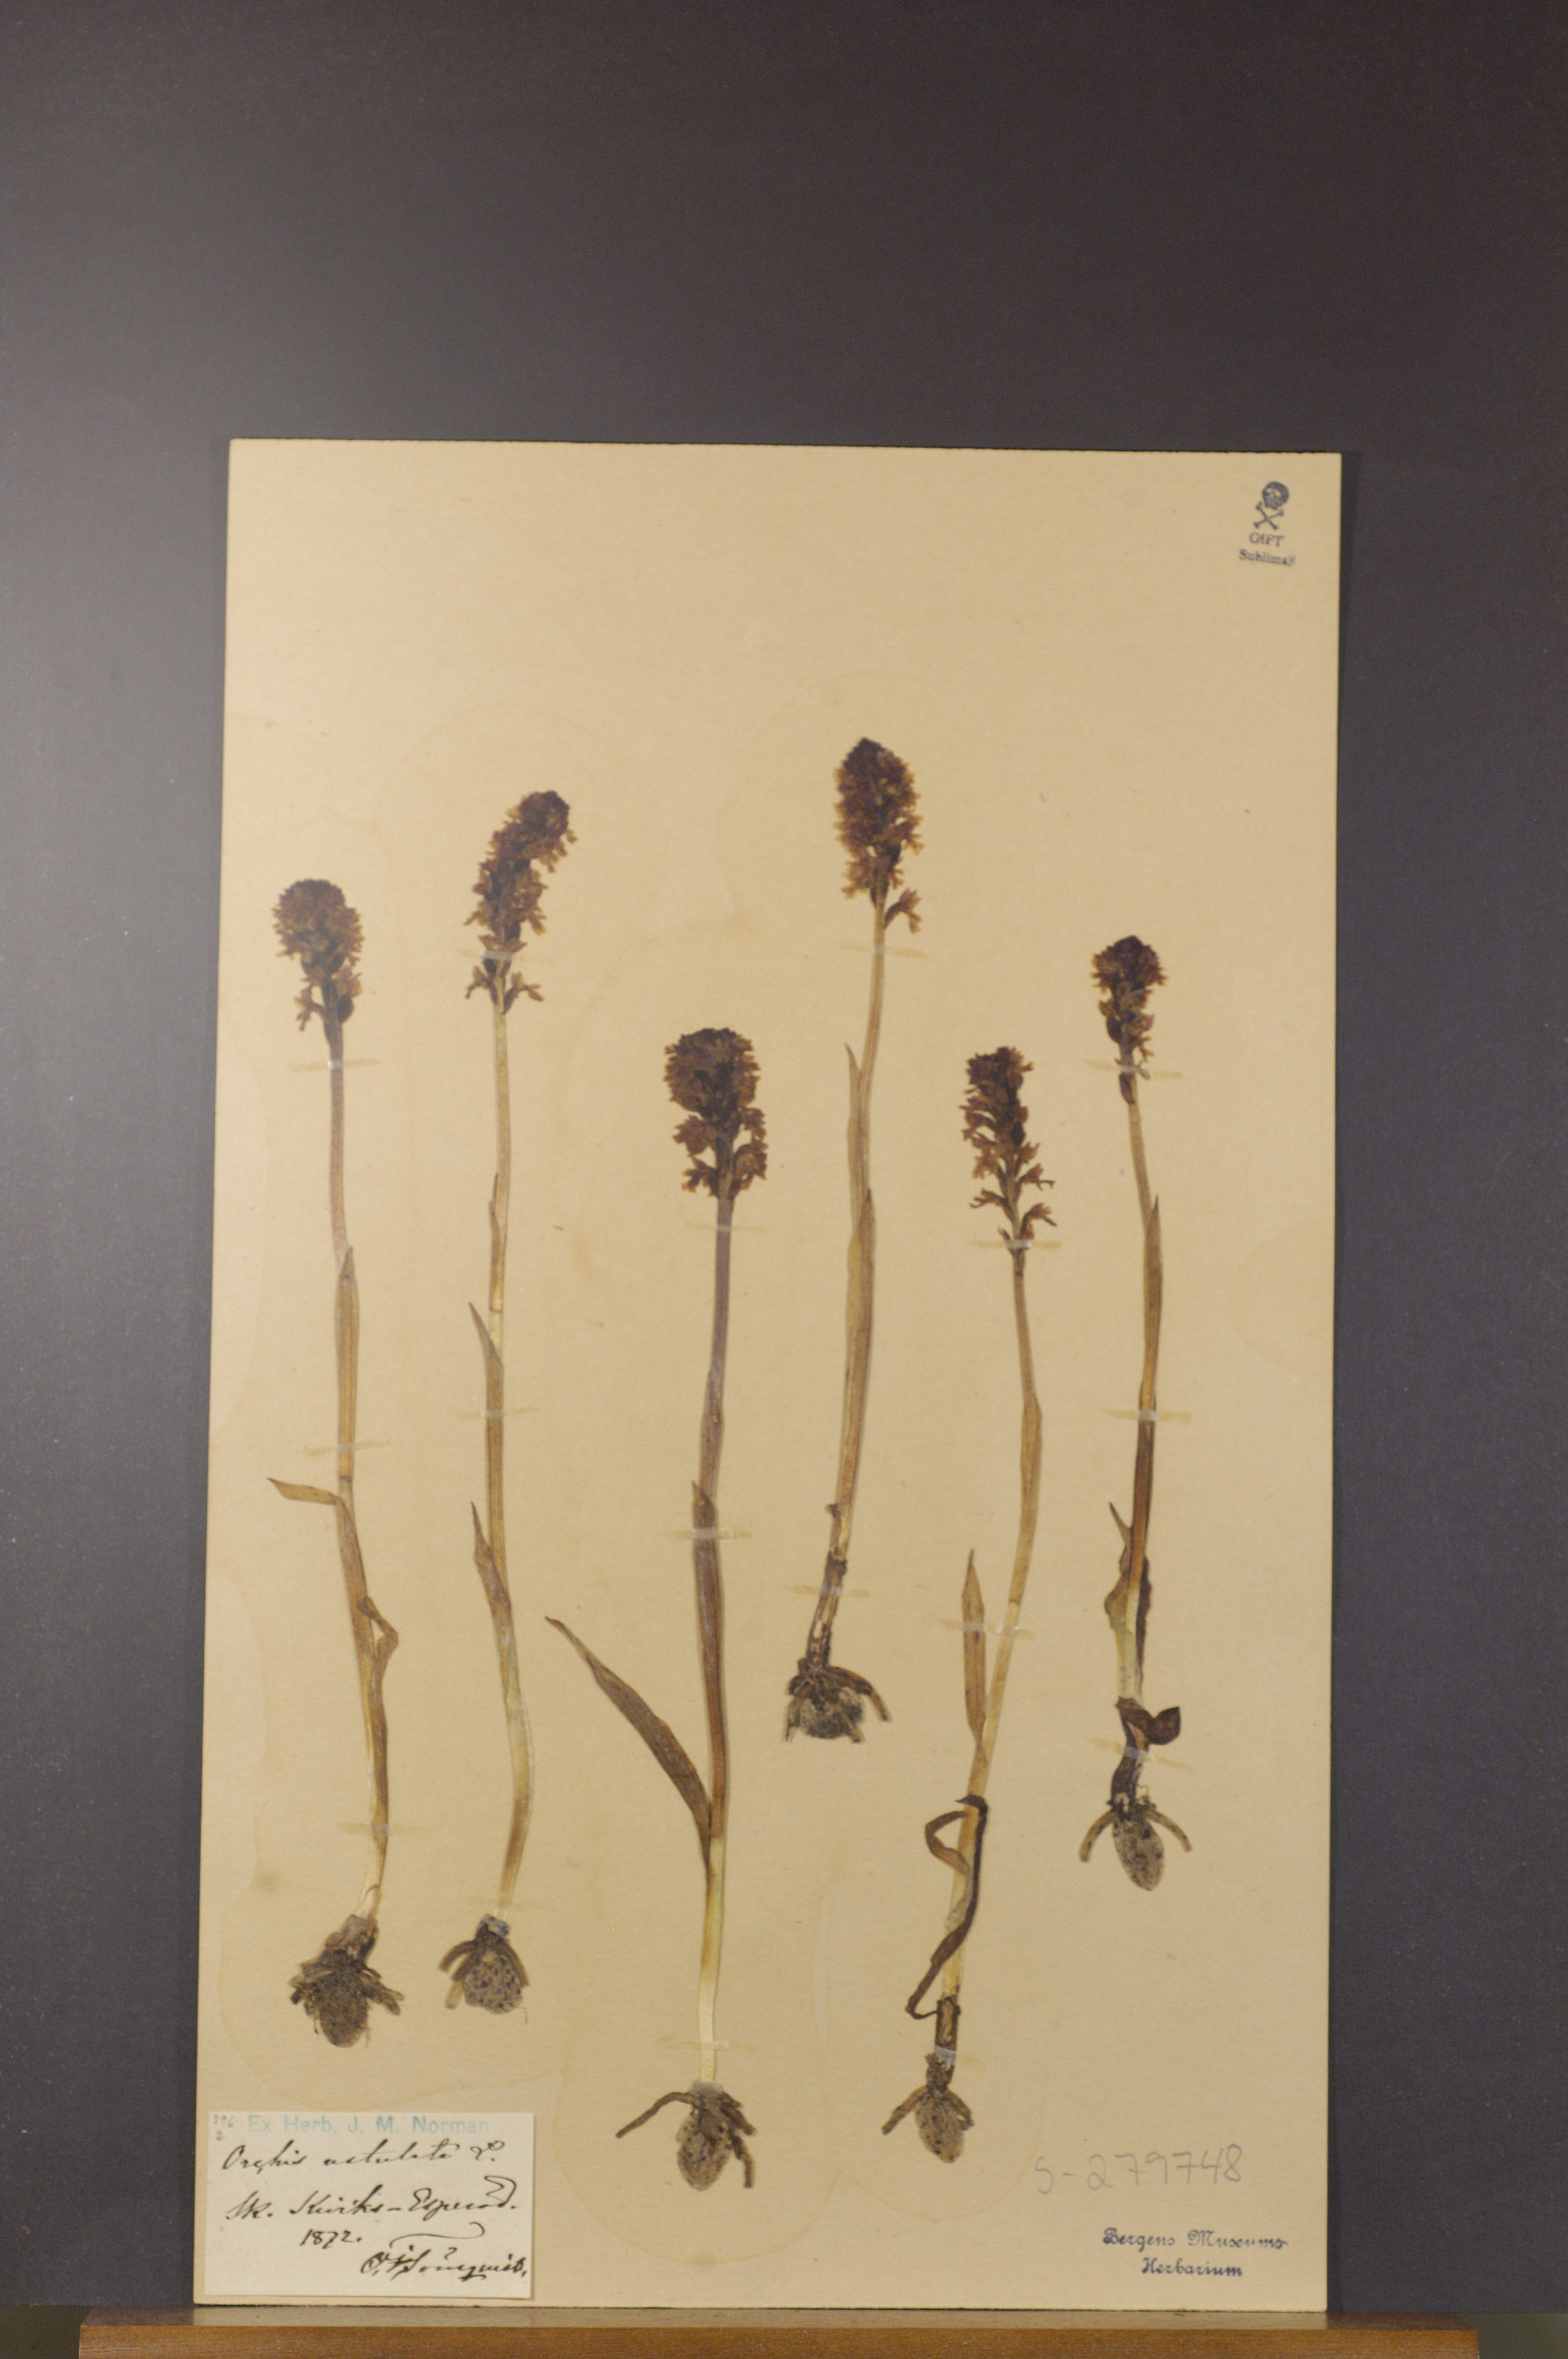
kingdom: Plantae
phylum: Tracheophyta
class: Liliopsida
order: Asparagales
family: Orchidaceae
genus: Neotinea
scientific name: Neotinea ustulata
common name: Burnt orchid
